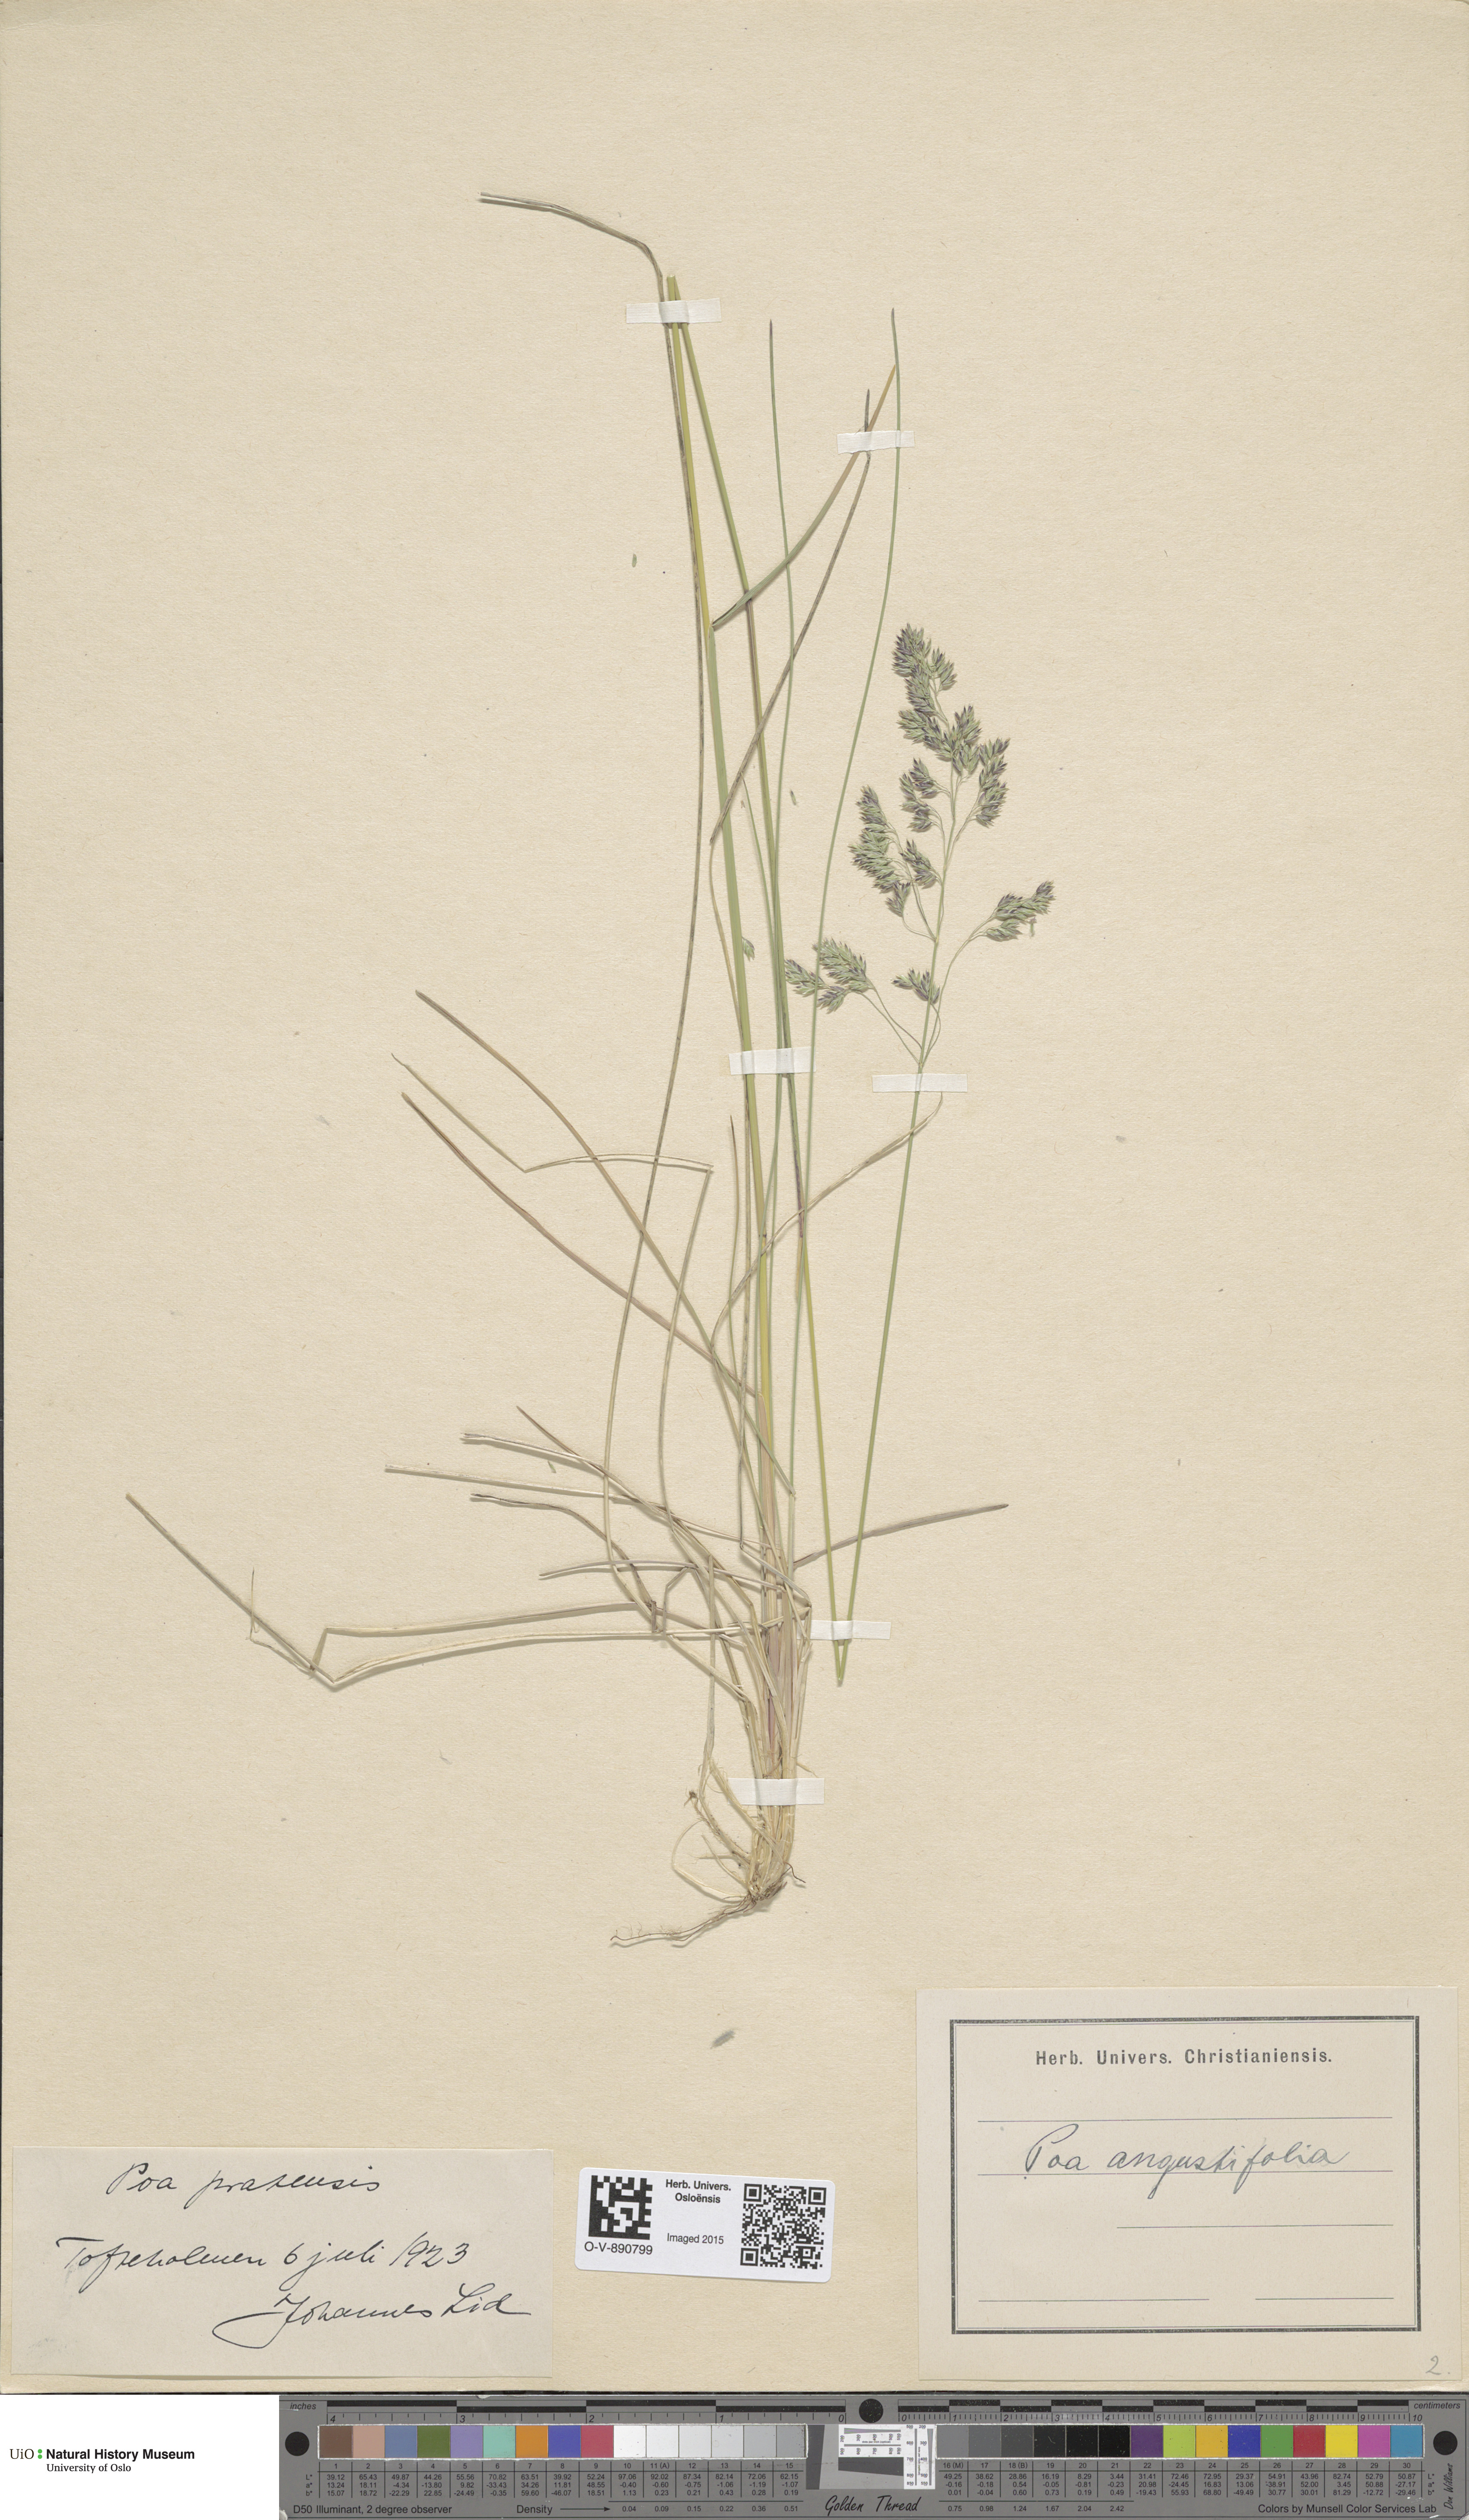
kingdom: Plantae
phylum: Tracheophyta
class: Liliopsida
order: Poales
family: Poaceae
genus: Poa
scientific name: Poa angustifolia
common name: Narrow-leaved meadow-grass
